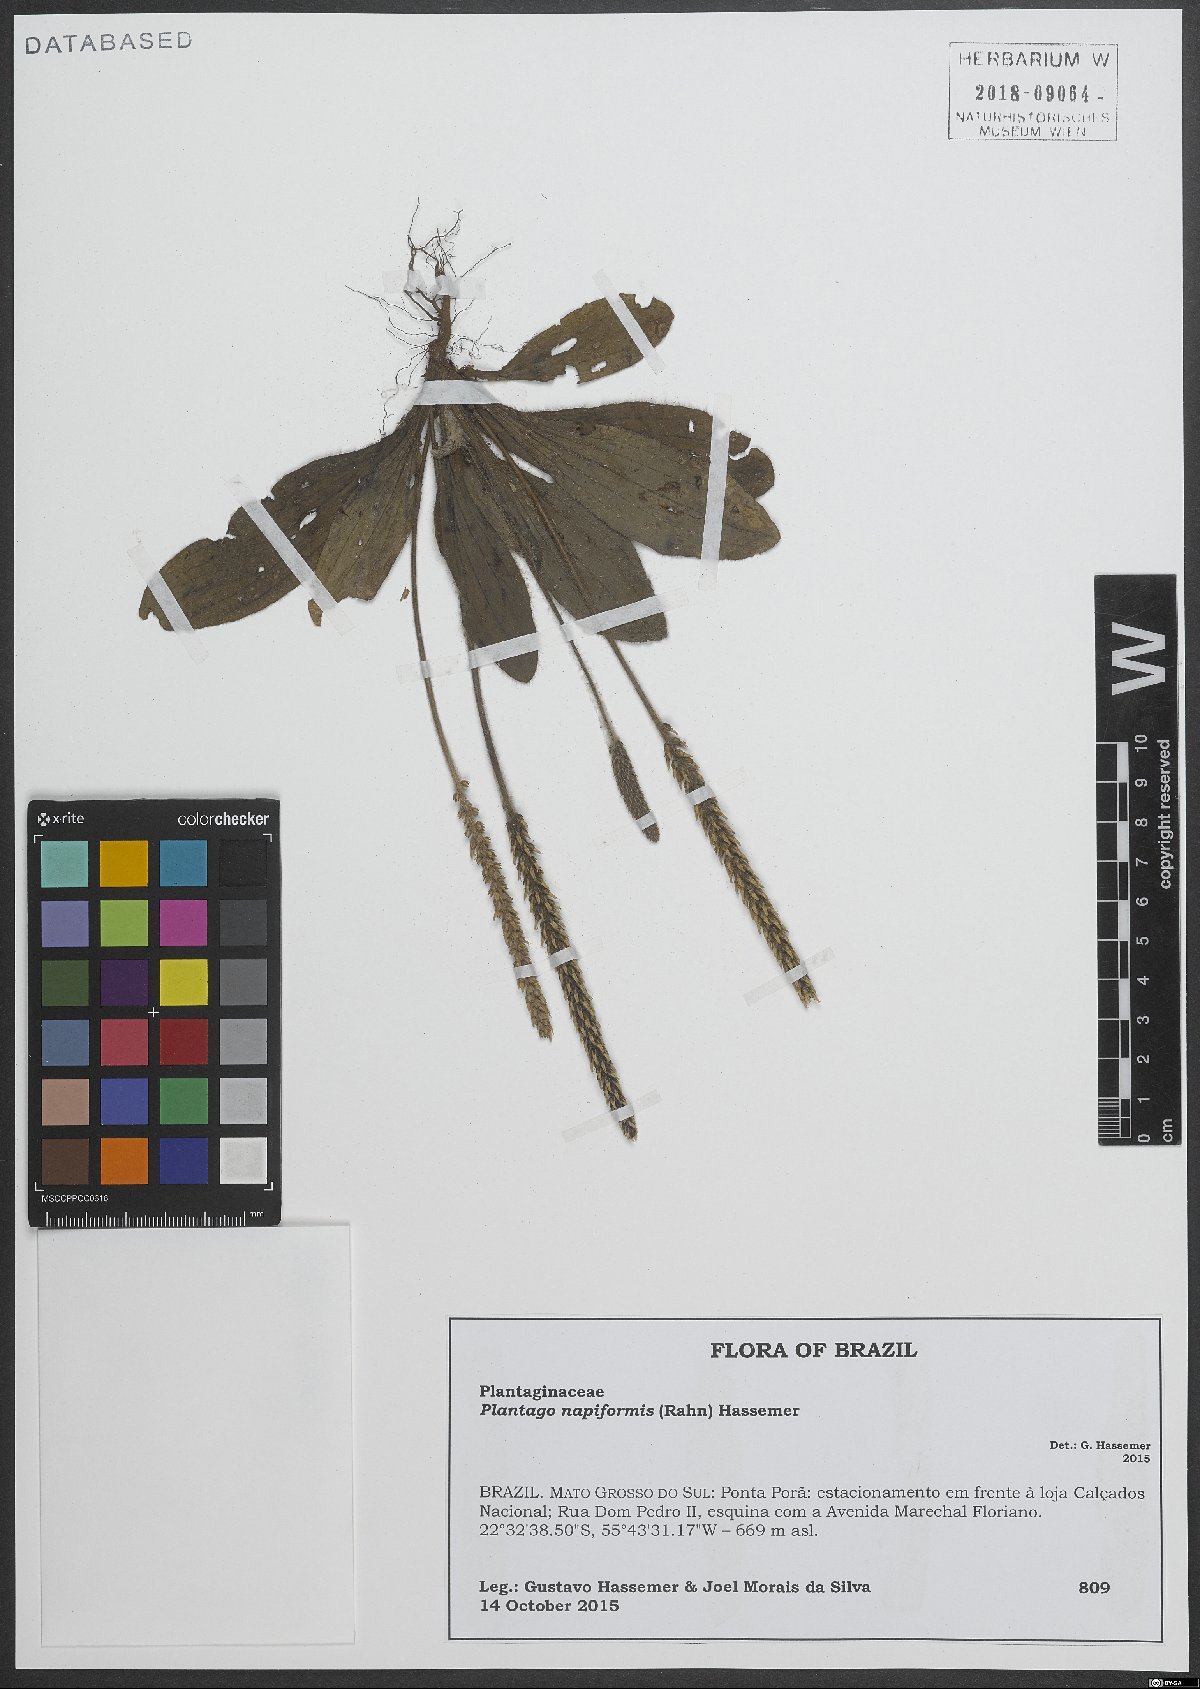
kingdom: Plantae
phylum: Tracheophyta
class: Magnoliopsida
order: Lamiales
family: Plantaginaceae
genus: Plantago
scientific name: Plantago napiformis
